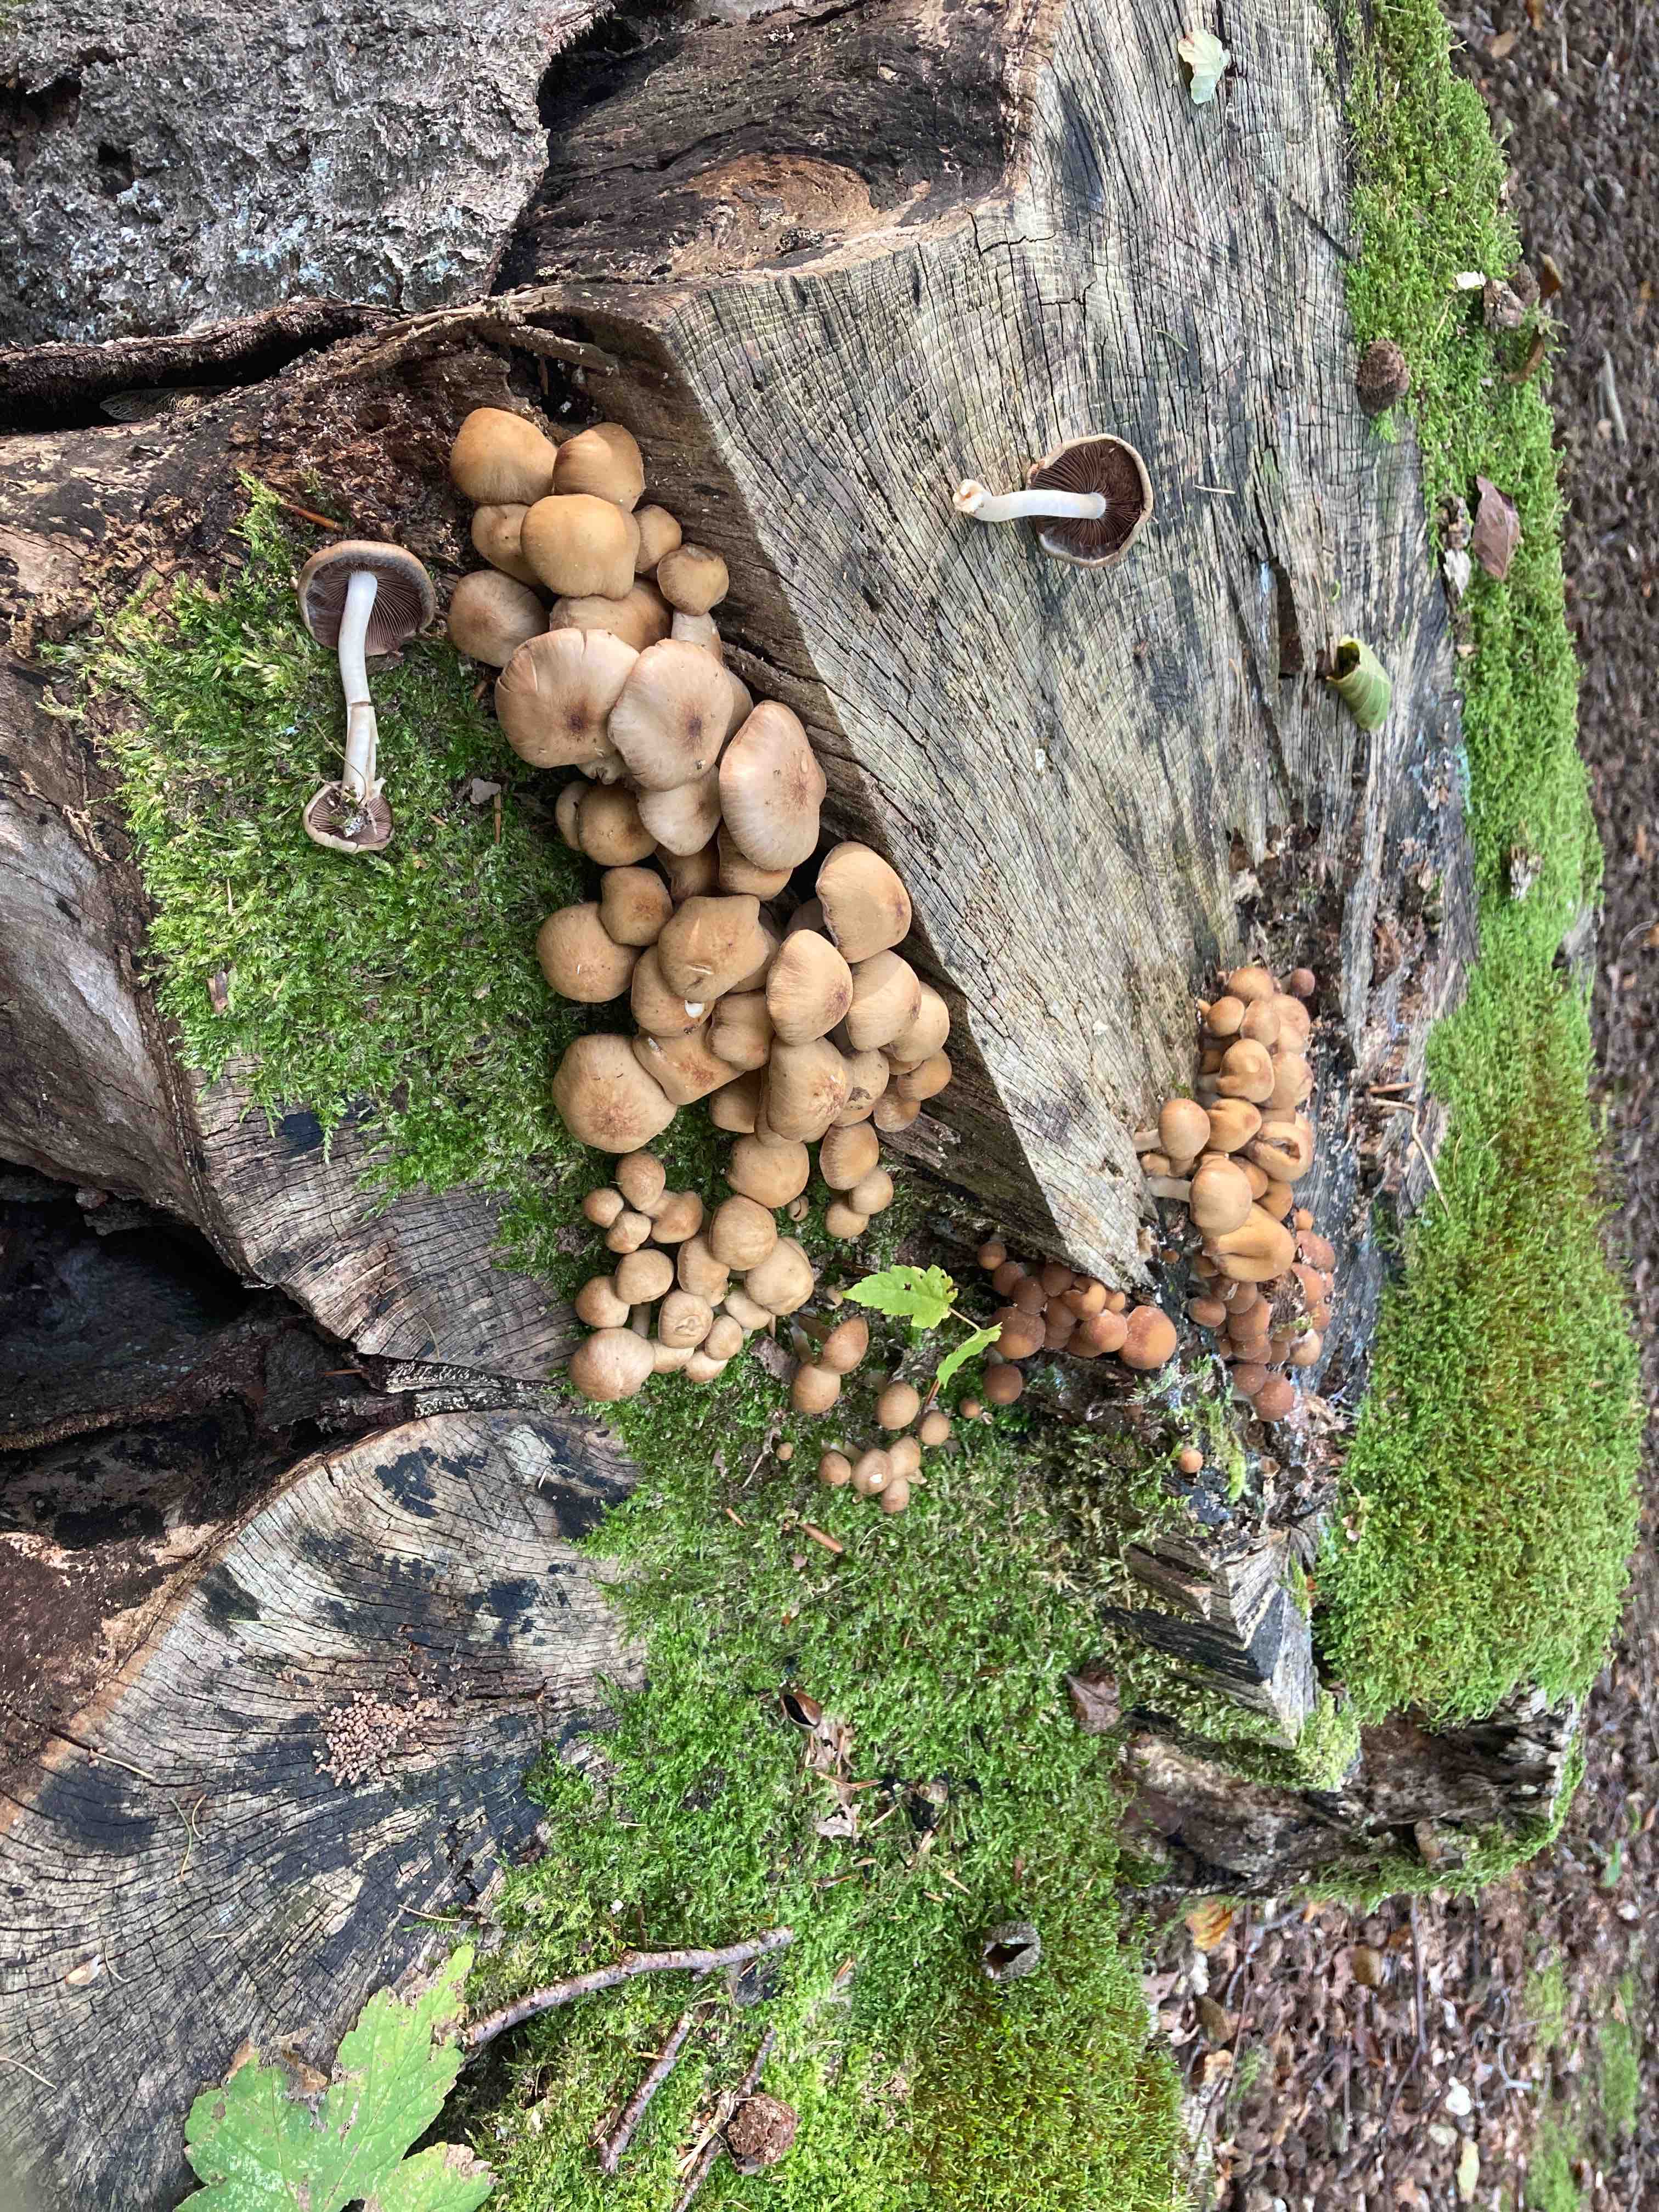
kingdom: Fungi
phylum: Basidiomycota
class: Agaricomycetes
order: Agaricales
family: Psathyrellaceae
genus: Psathyrella
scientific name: Psathyrella piluliformis
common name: lysstokket mørkhat
